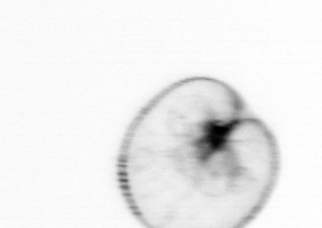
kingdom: Chromista
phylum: Myzozoa
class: Dinophyceae
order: Noctilucales
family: Noctilucaceae
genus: Noctiluca
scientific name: Noctiluca scintillans
